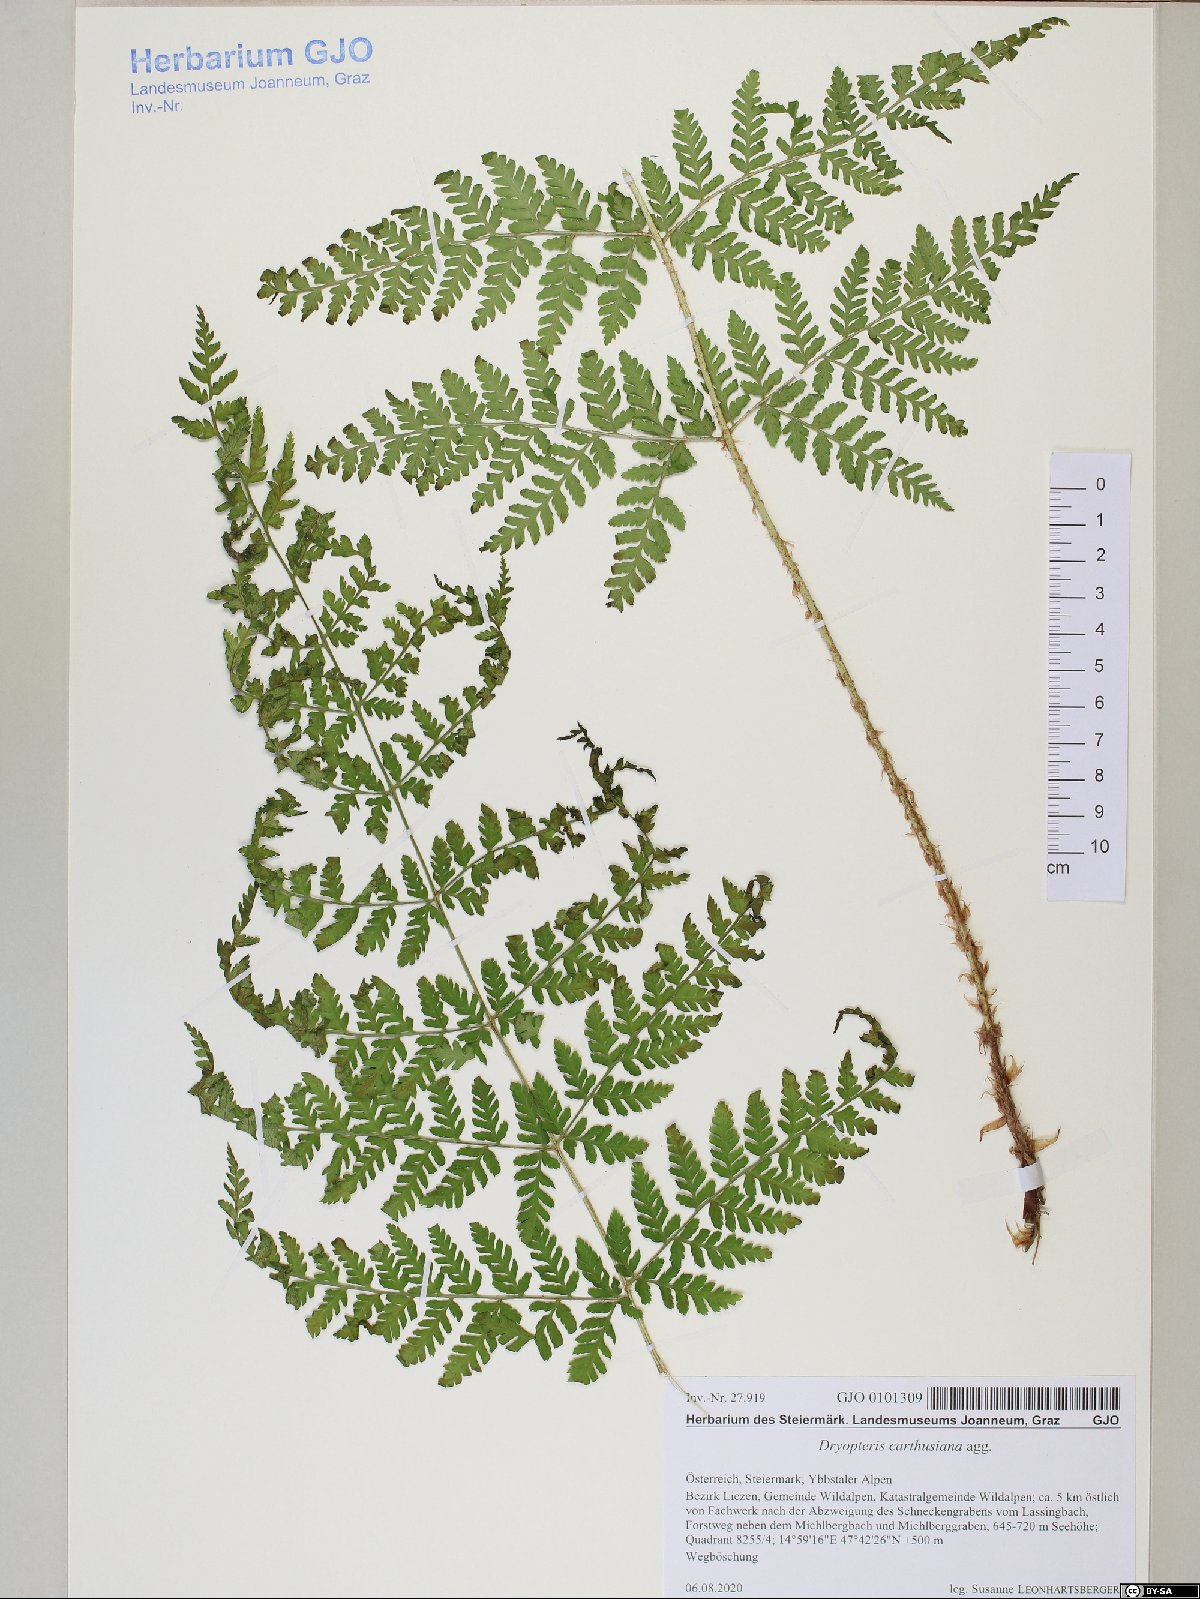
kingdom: Plantae
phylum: Tracheophyta
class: Polypodiopsida
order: Polypodiales
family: Dryopteridaceae
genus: Dryopteris
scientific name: Dryopteris carthusiana
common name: Narrow buckler-fern
